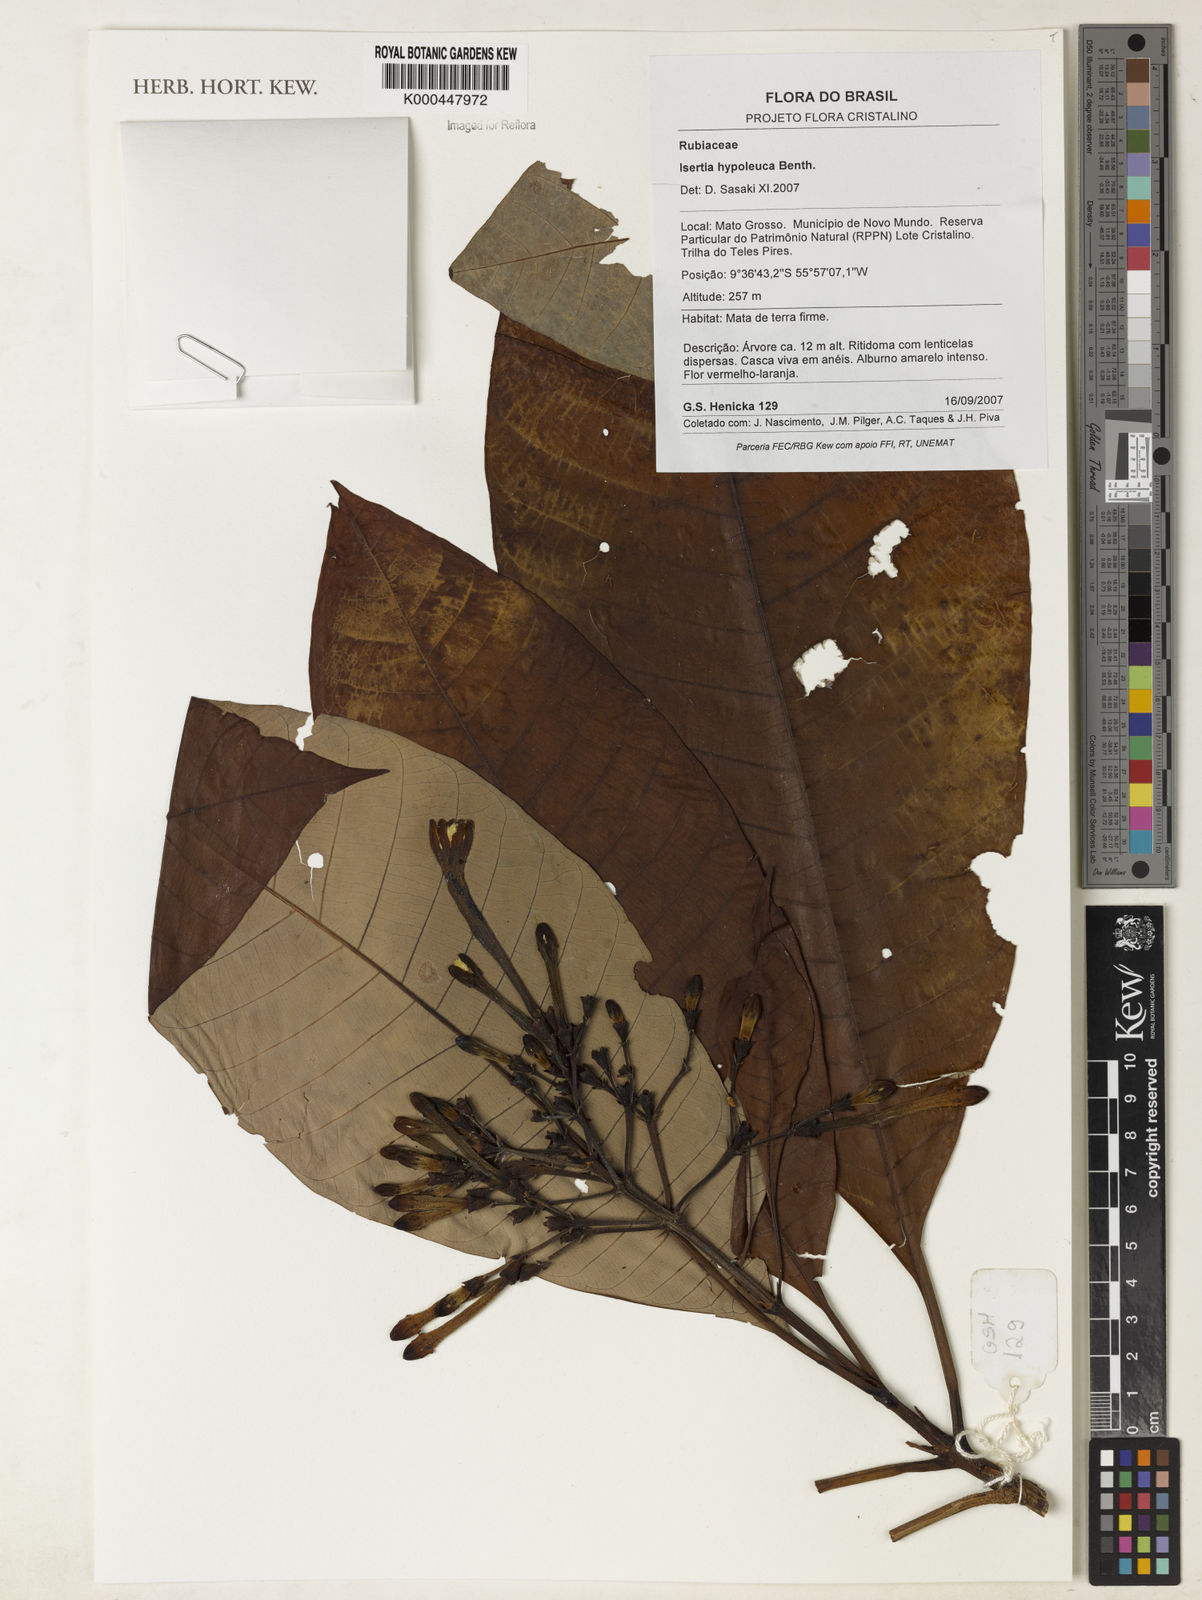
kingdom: Plantae
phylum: Tracheophyta
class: Magnoliopsida
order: Gentianales
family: Rubiaceae
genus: Isertia
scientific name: Isertia hypoleuca
